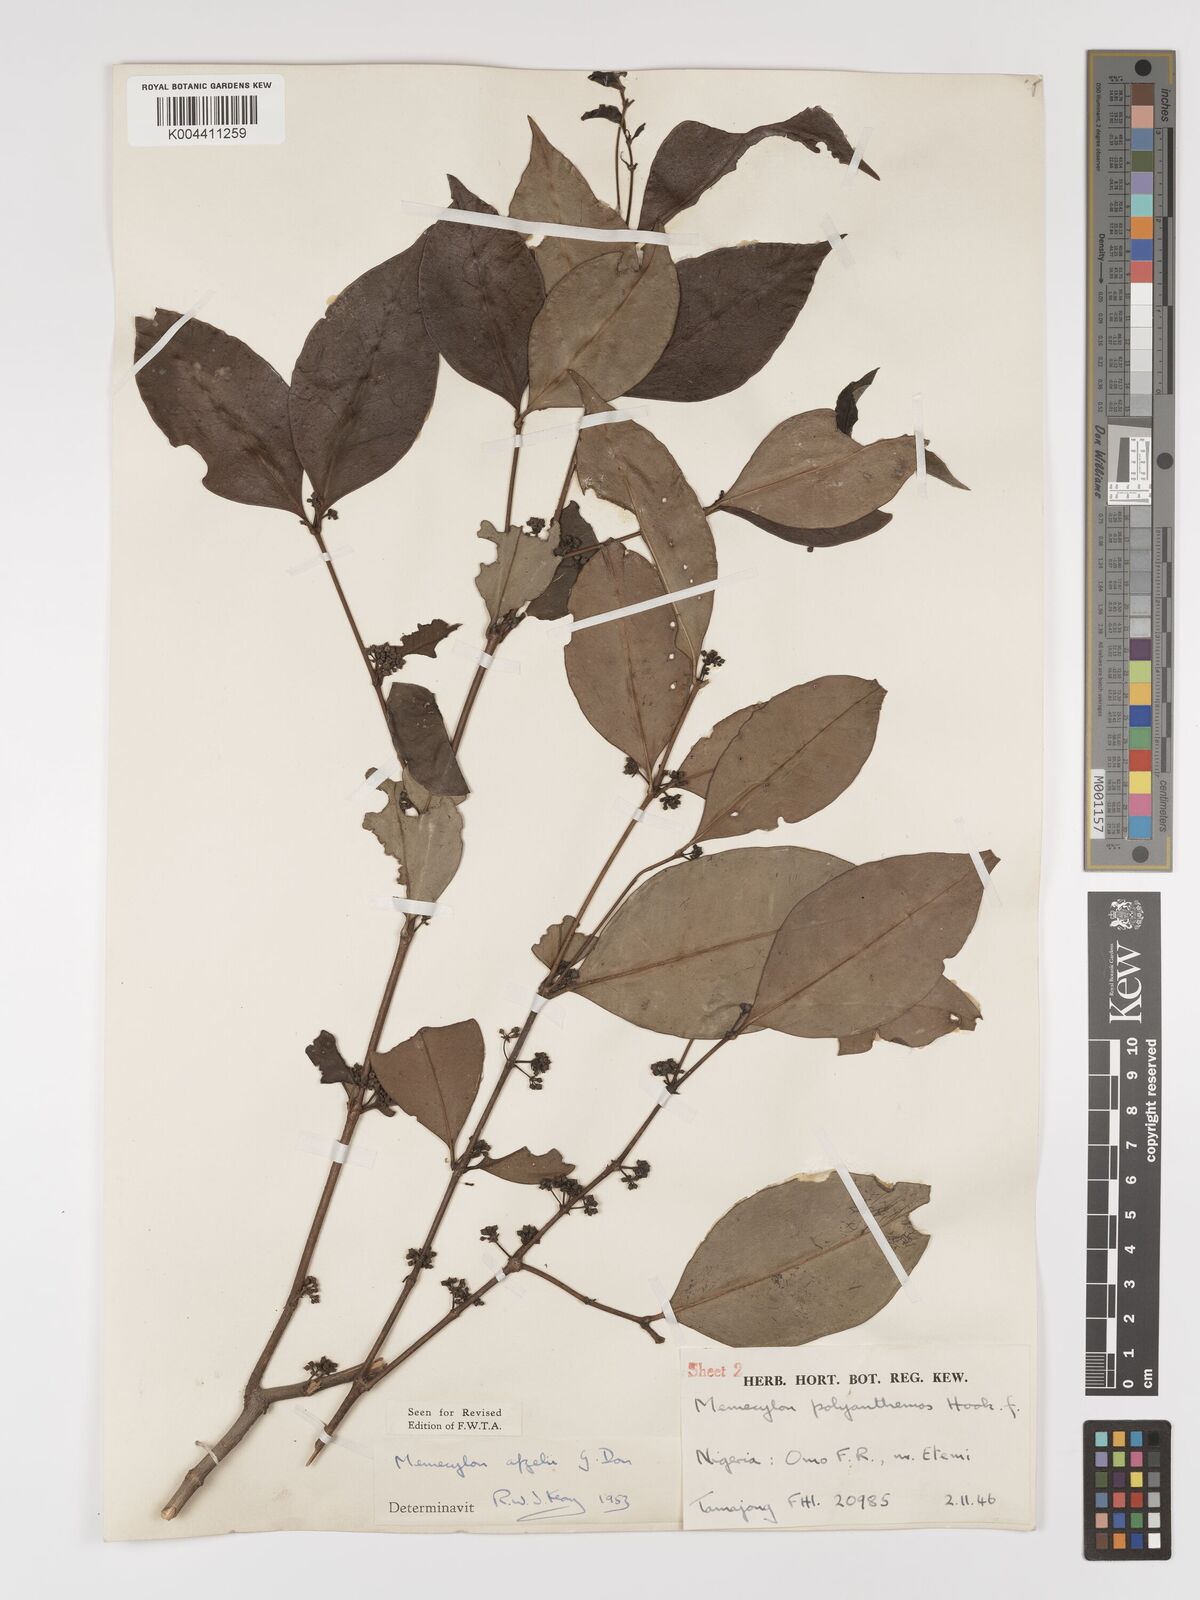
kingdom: Plantae
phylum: Tracheophyta
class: Magnoliopsida
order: Myrtales
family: Melastomataceae
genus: Memecylon
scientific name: Memecylon afzelii
